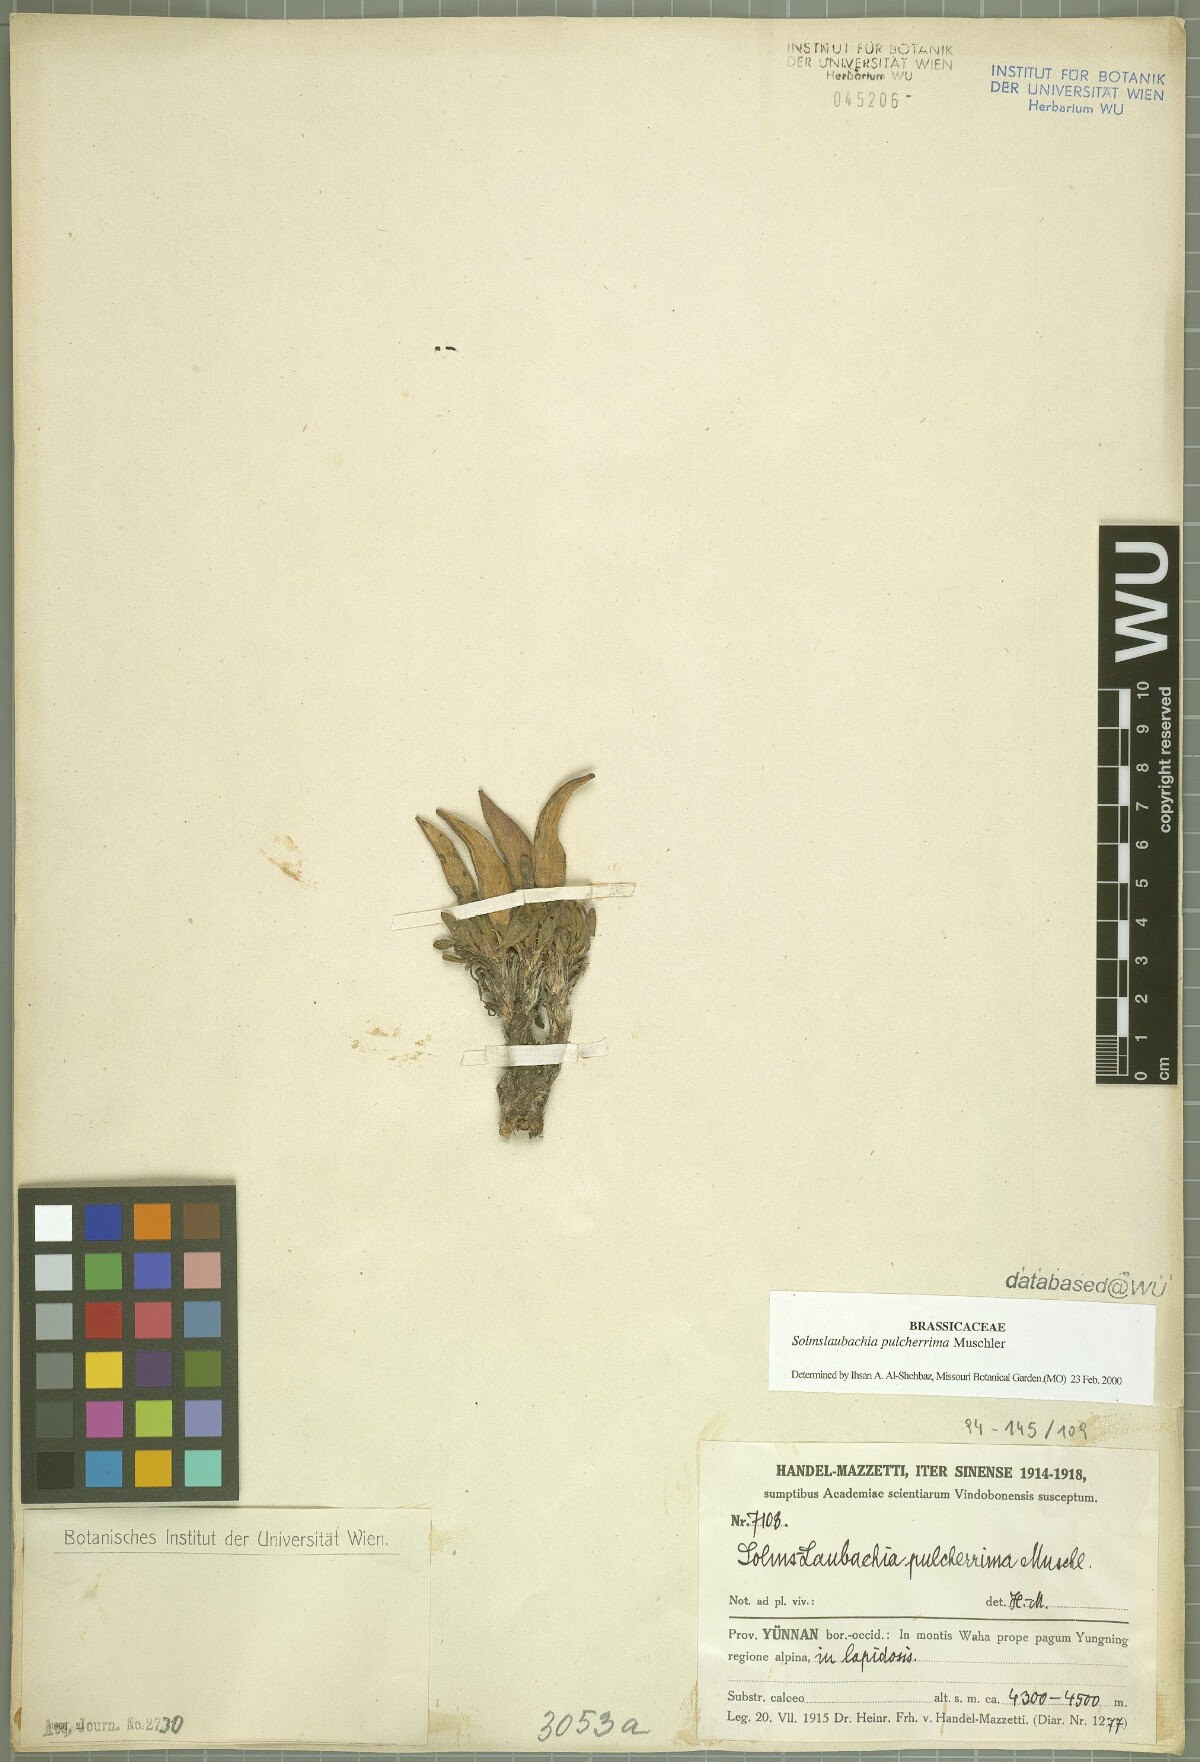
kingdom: Plantae
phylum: Tracheophyta
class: Magnoliopsida
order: Brassicales
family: Brassicaceae
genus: Solms-Laubachia
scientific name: Solms-Laubachia pulcherrima
